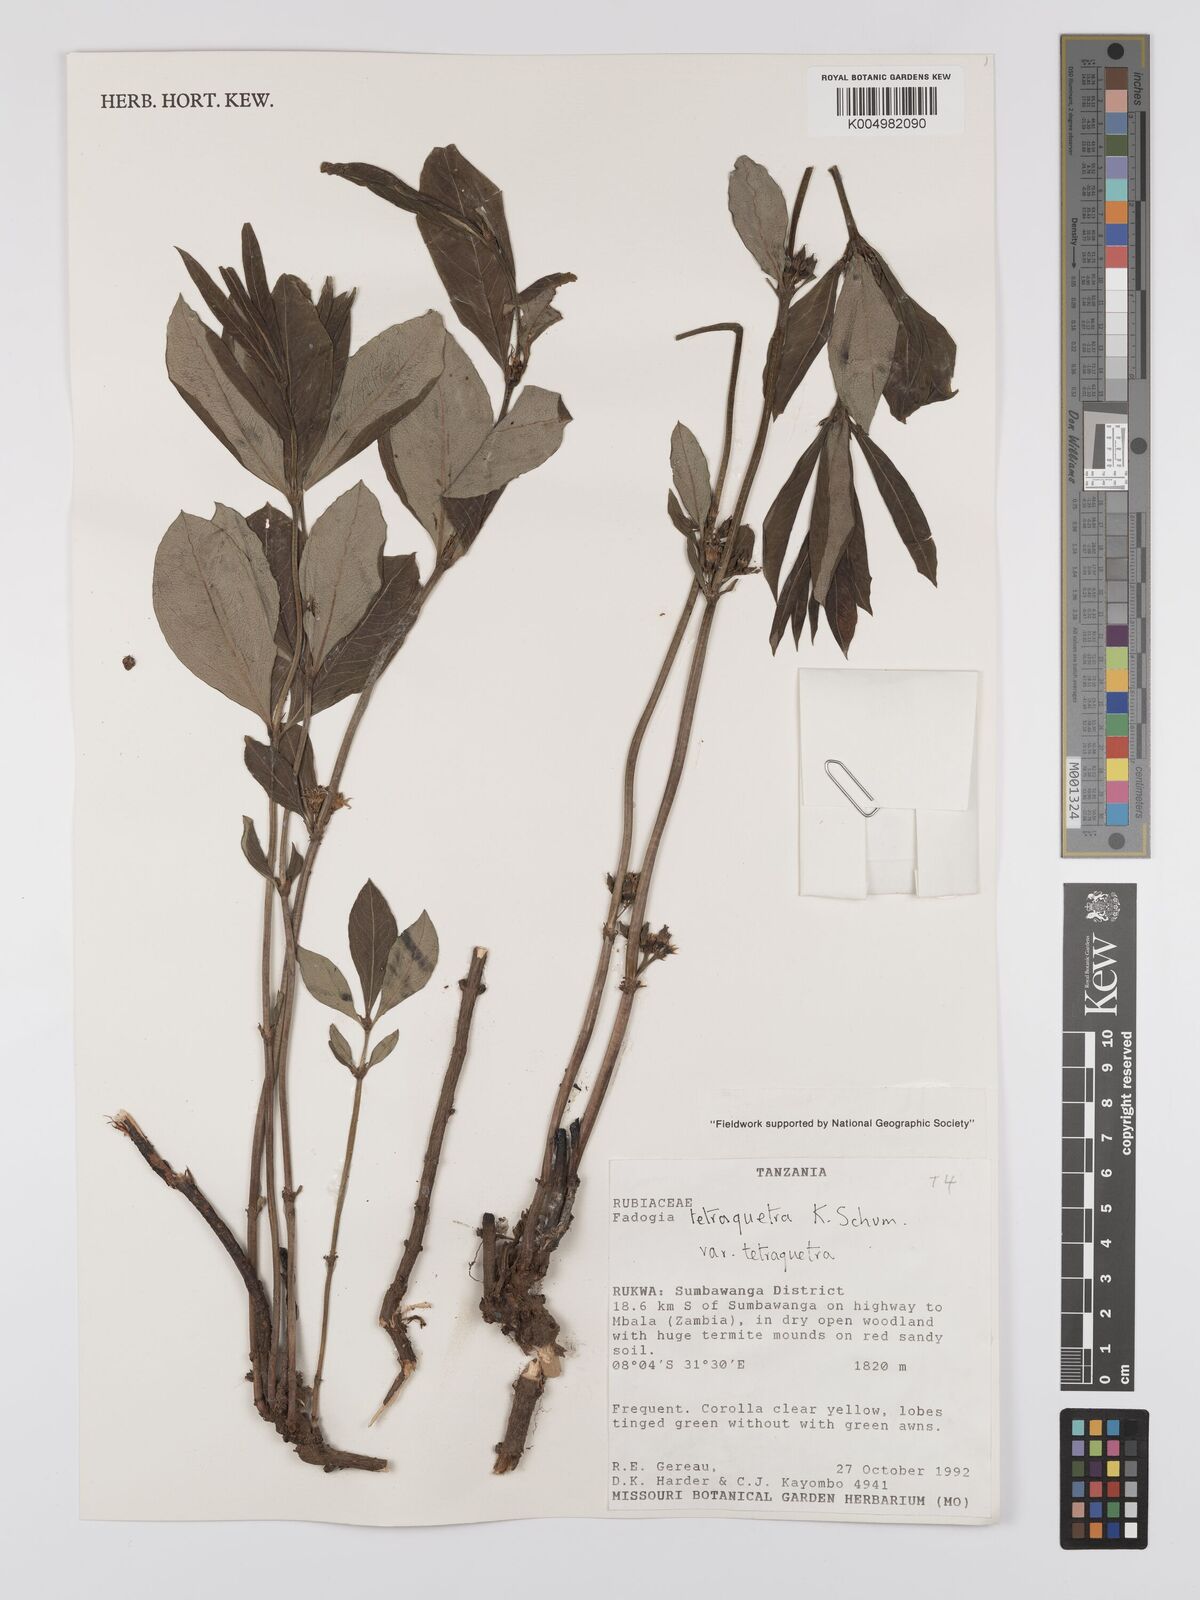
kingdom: Plantae
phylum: Tracheophyta
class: Magnoliopsida
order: Gentianales
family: Rubiaceae
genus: Fadogia
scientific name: Fadogia tetraquetra
